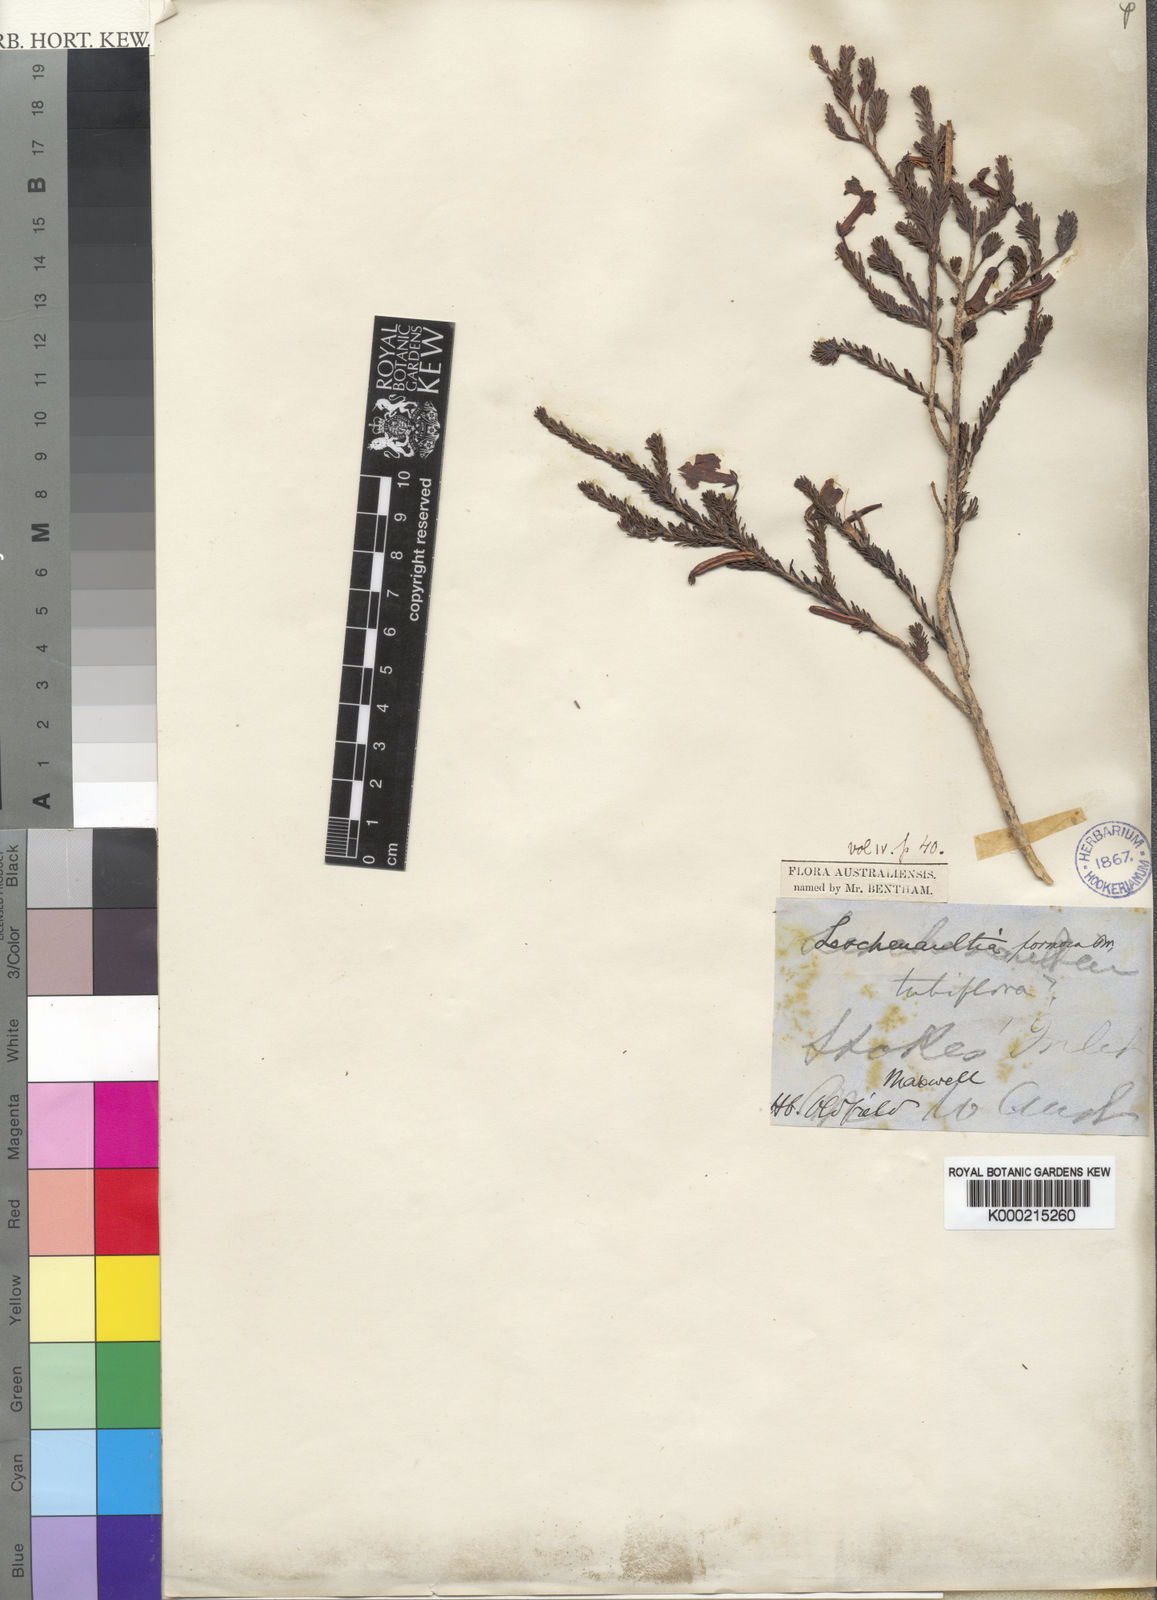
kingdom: Plantae
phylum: Tracheophyta
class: Magnoliopsida
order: Asterales
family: Goodeniaceae
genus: Leschenaultia
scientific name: Leschenaultia formosa
